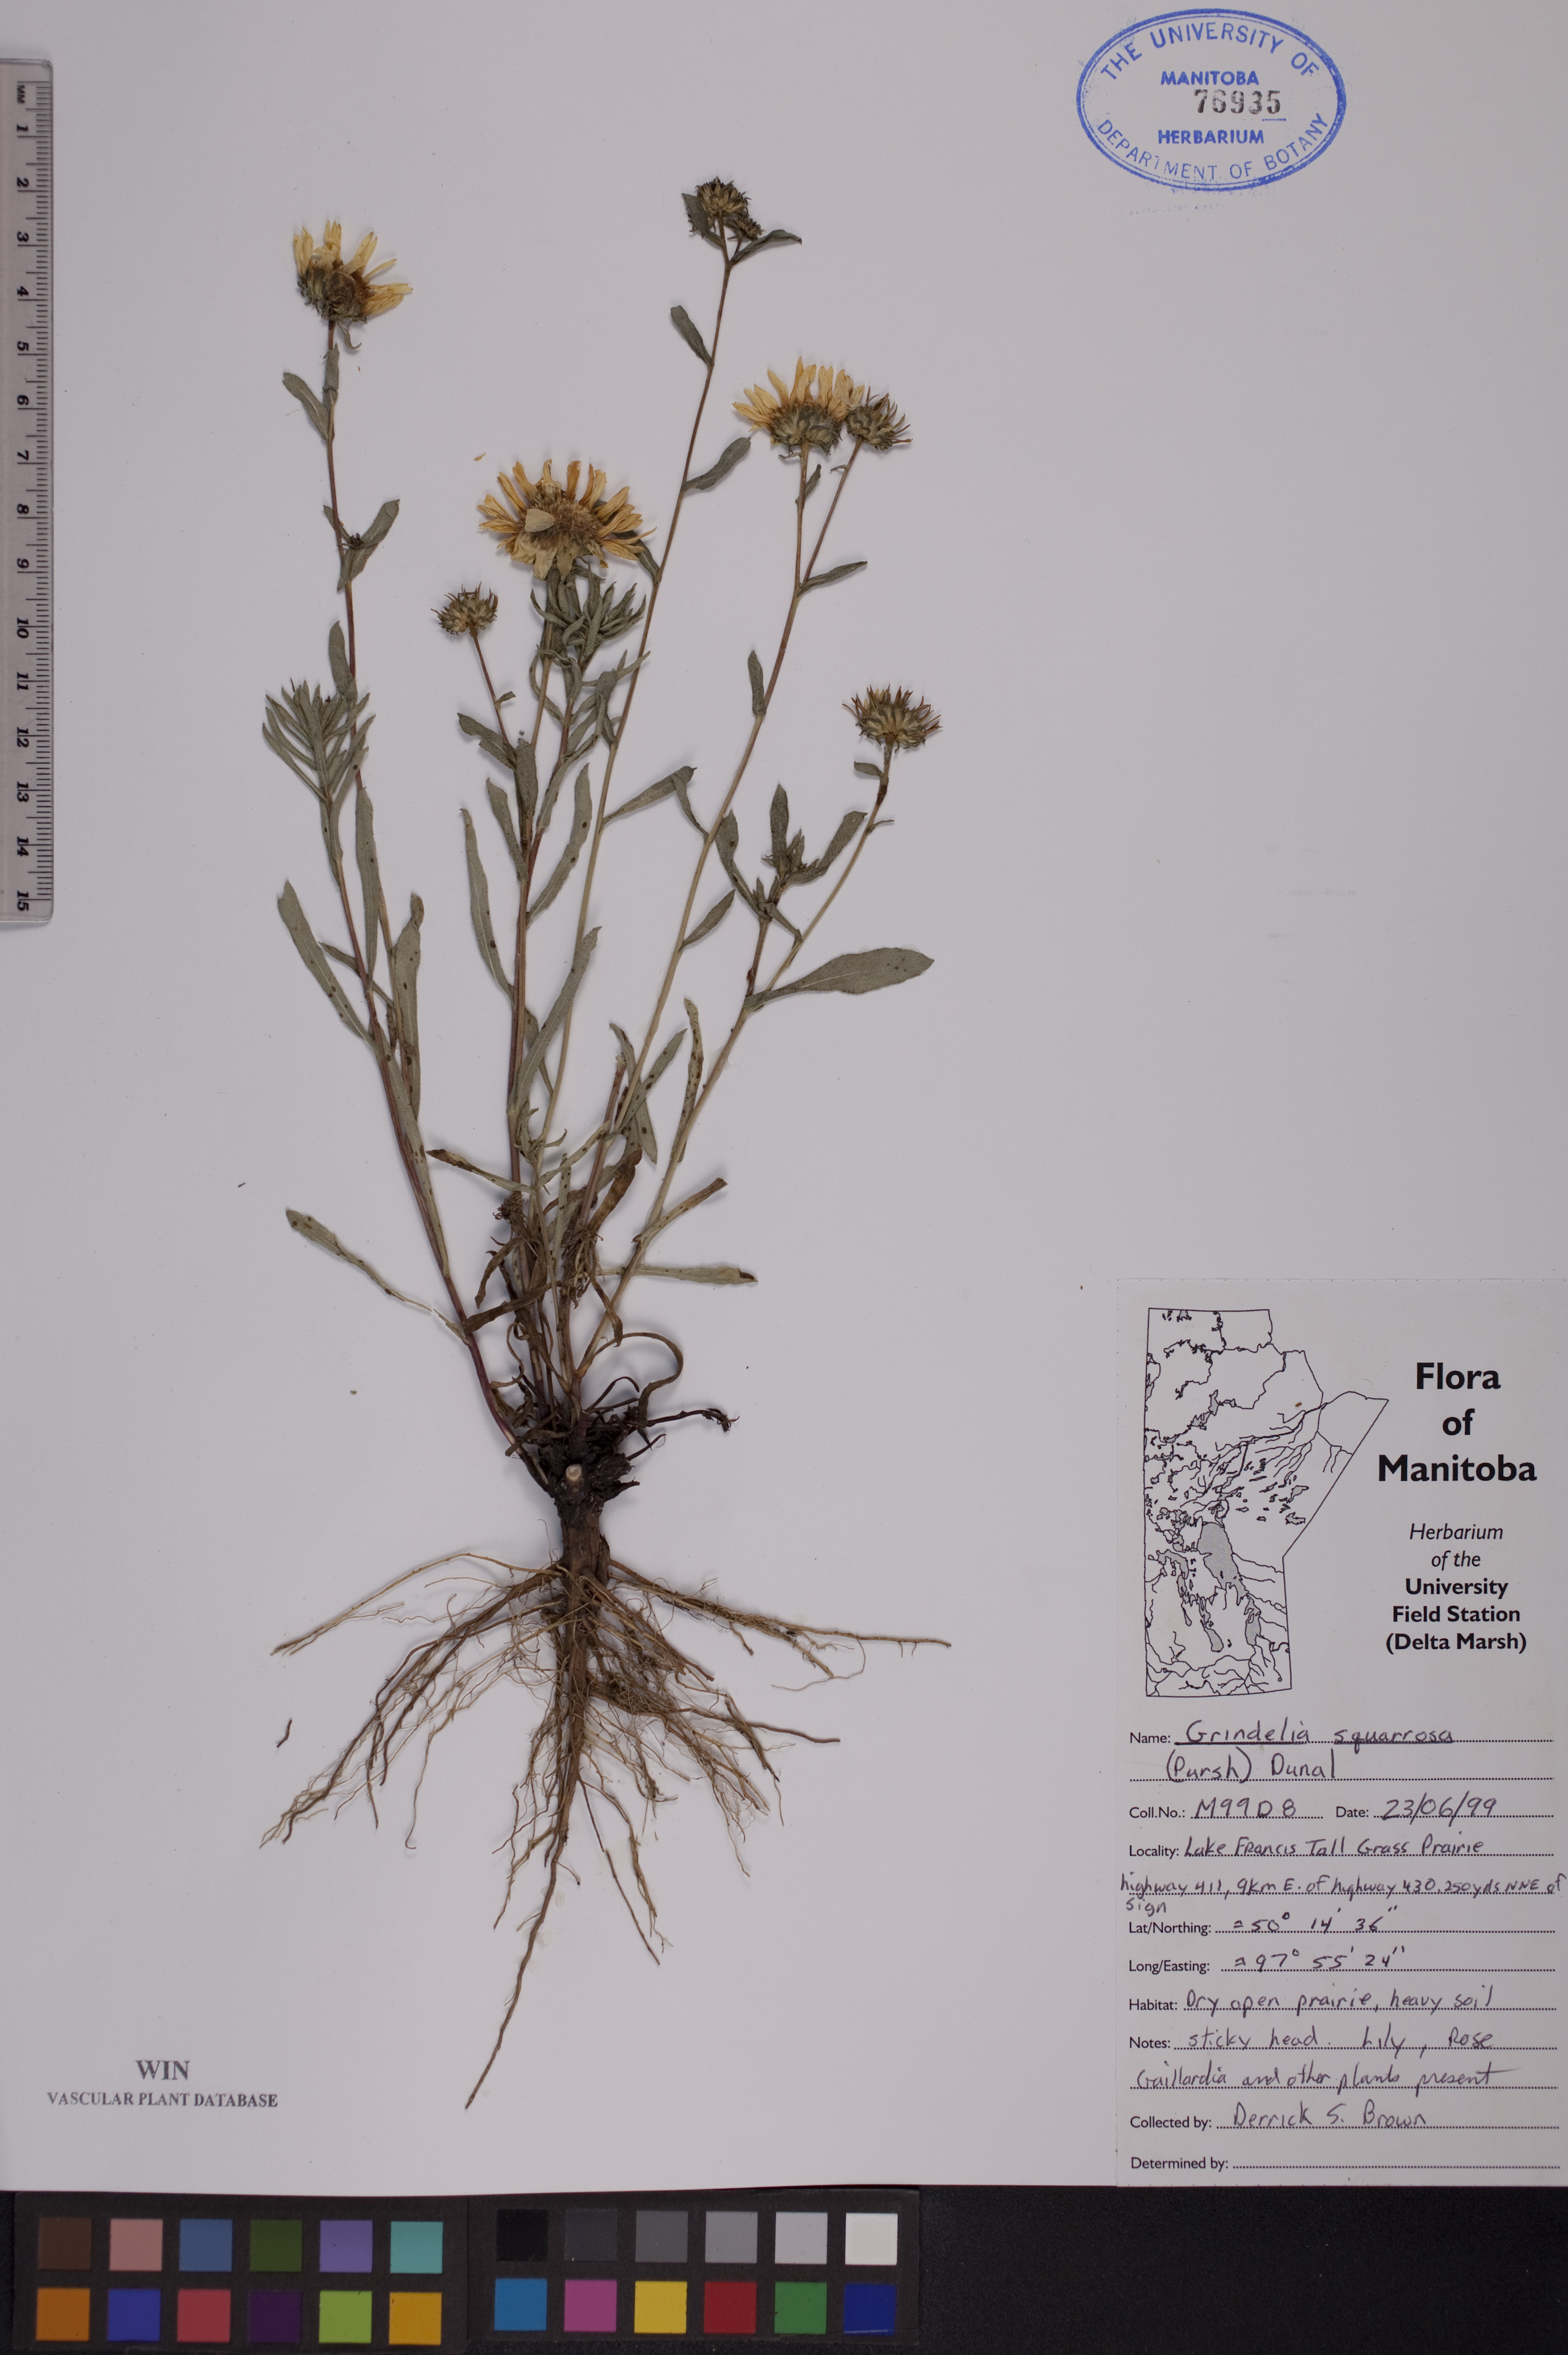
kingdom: Plantae
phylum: Tracheophyta
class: Magnoliopsida
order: Asterales
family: Asteraceae
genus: Grindelia
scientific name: Grindelia squarrosa
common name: Curly-cup gumweed
